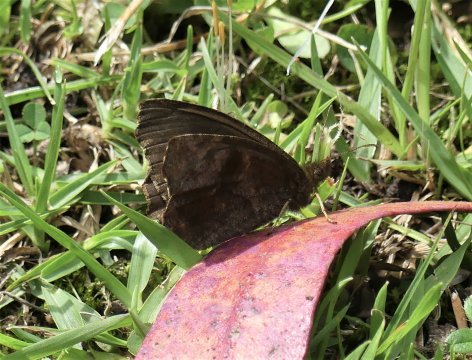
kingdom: Animalia
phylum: Arthropoda
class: Insecta
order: Lepidoptera
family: Nymphalidae
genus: Panyapedaliodes
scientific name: Panyapedaliodes
